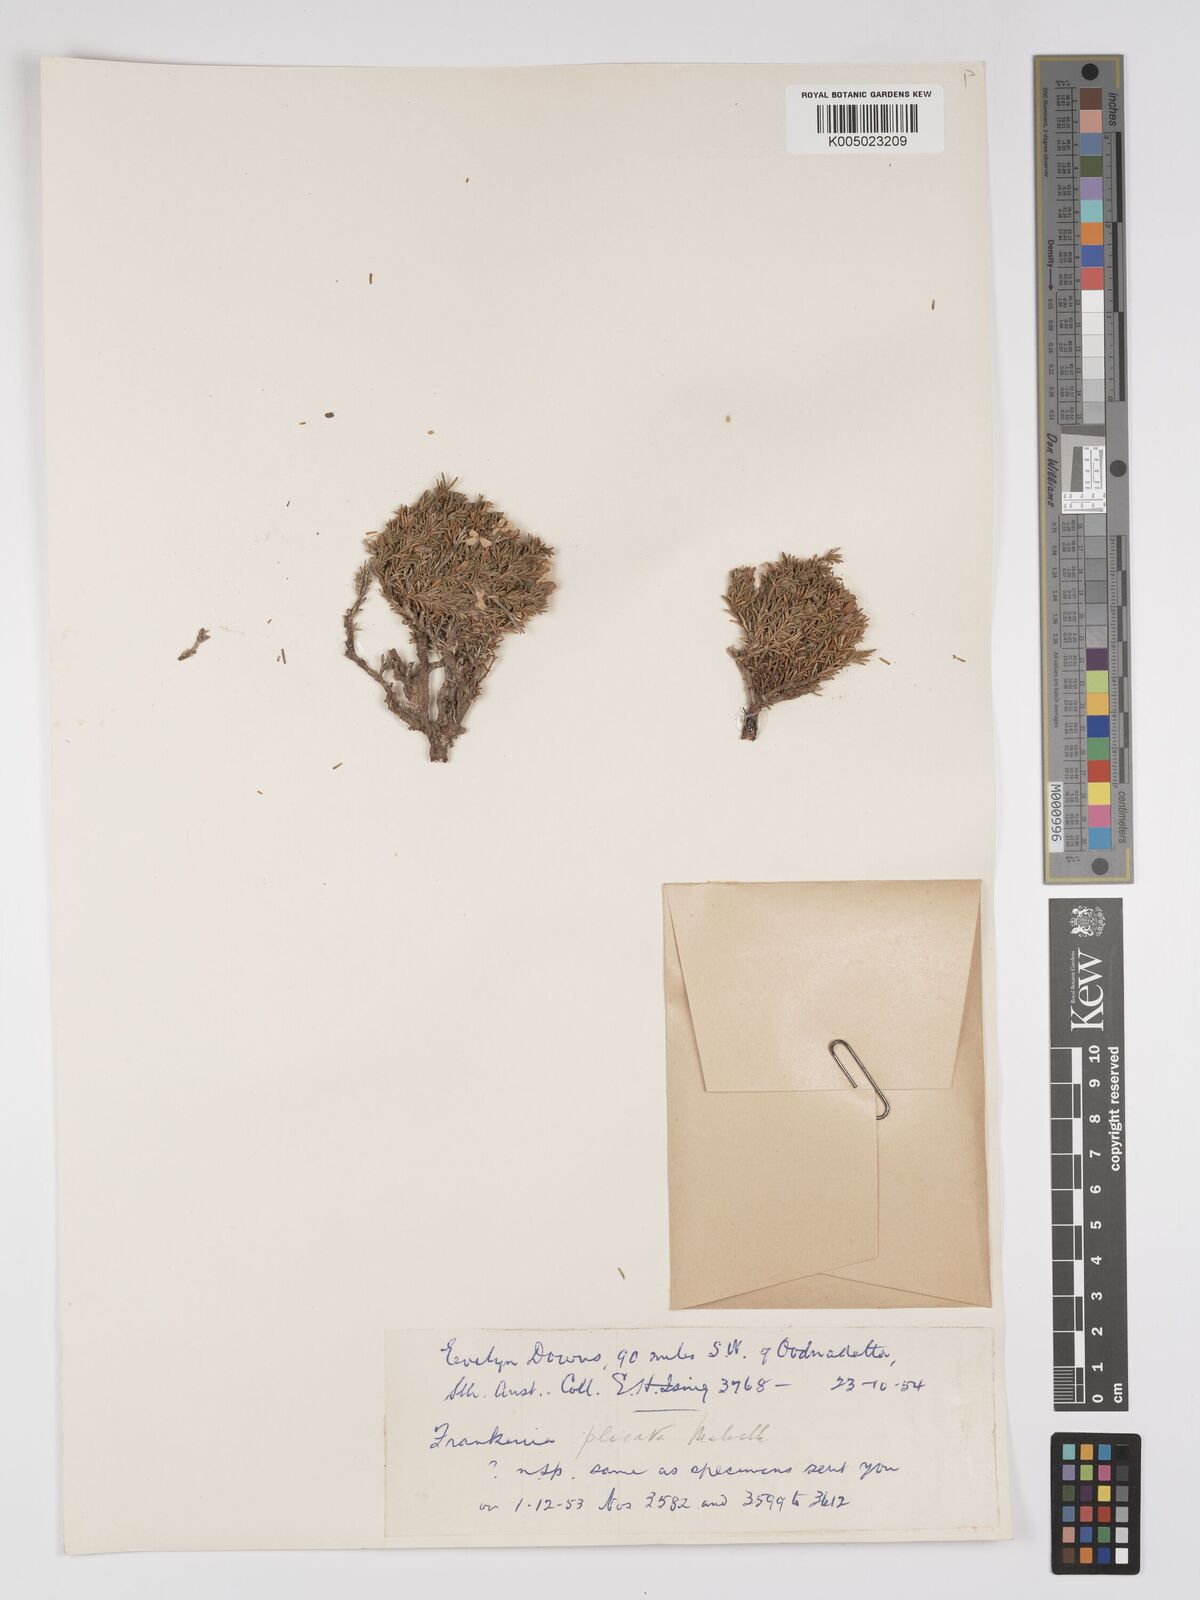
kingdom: Plantae
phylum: Tracheophyta
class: Magnoliopsida
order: Caryophyllales
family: Frankeniaceae
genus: Frankenia
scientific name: Frankenia plicata
